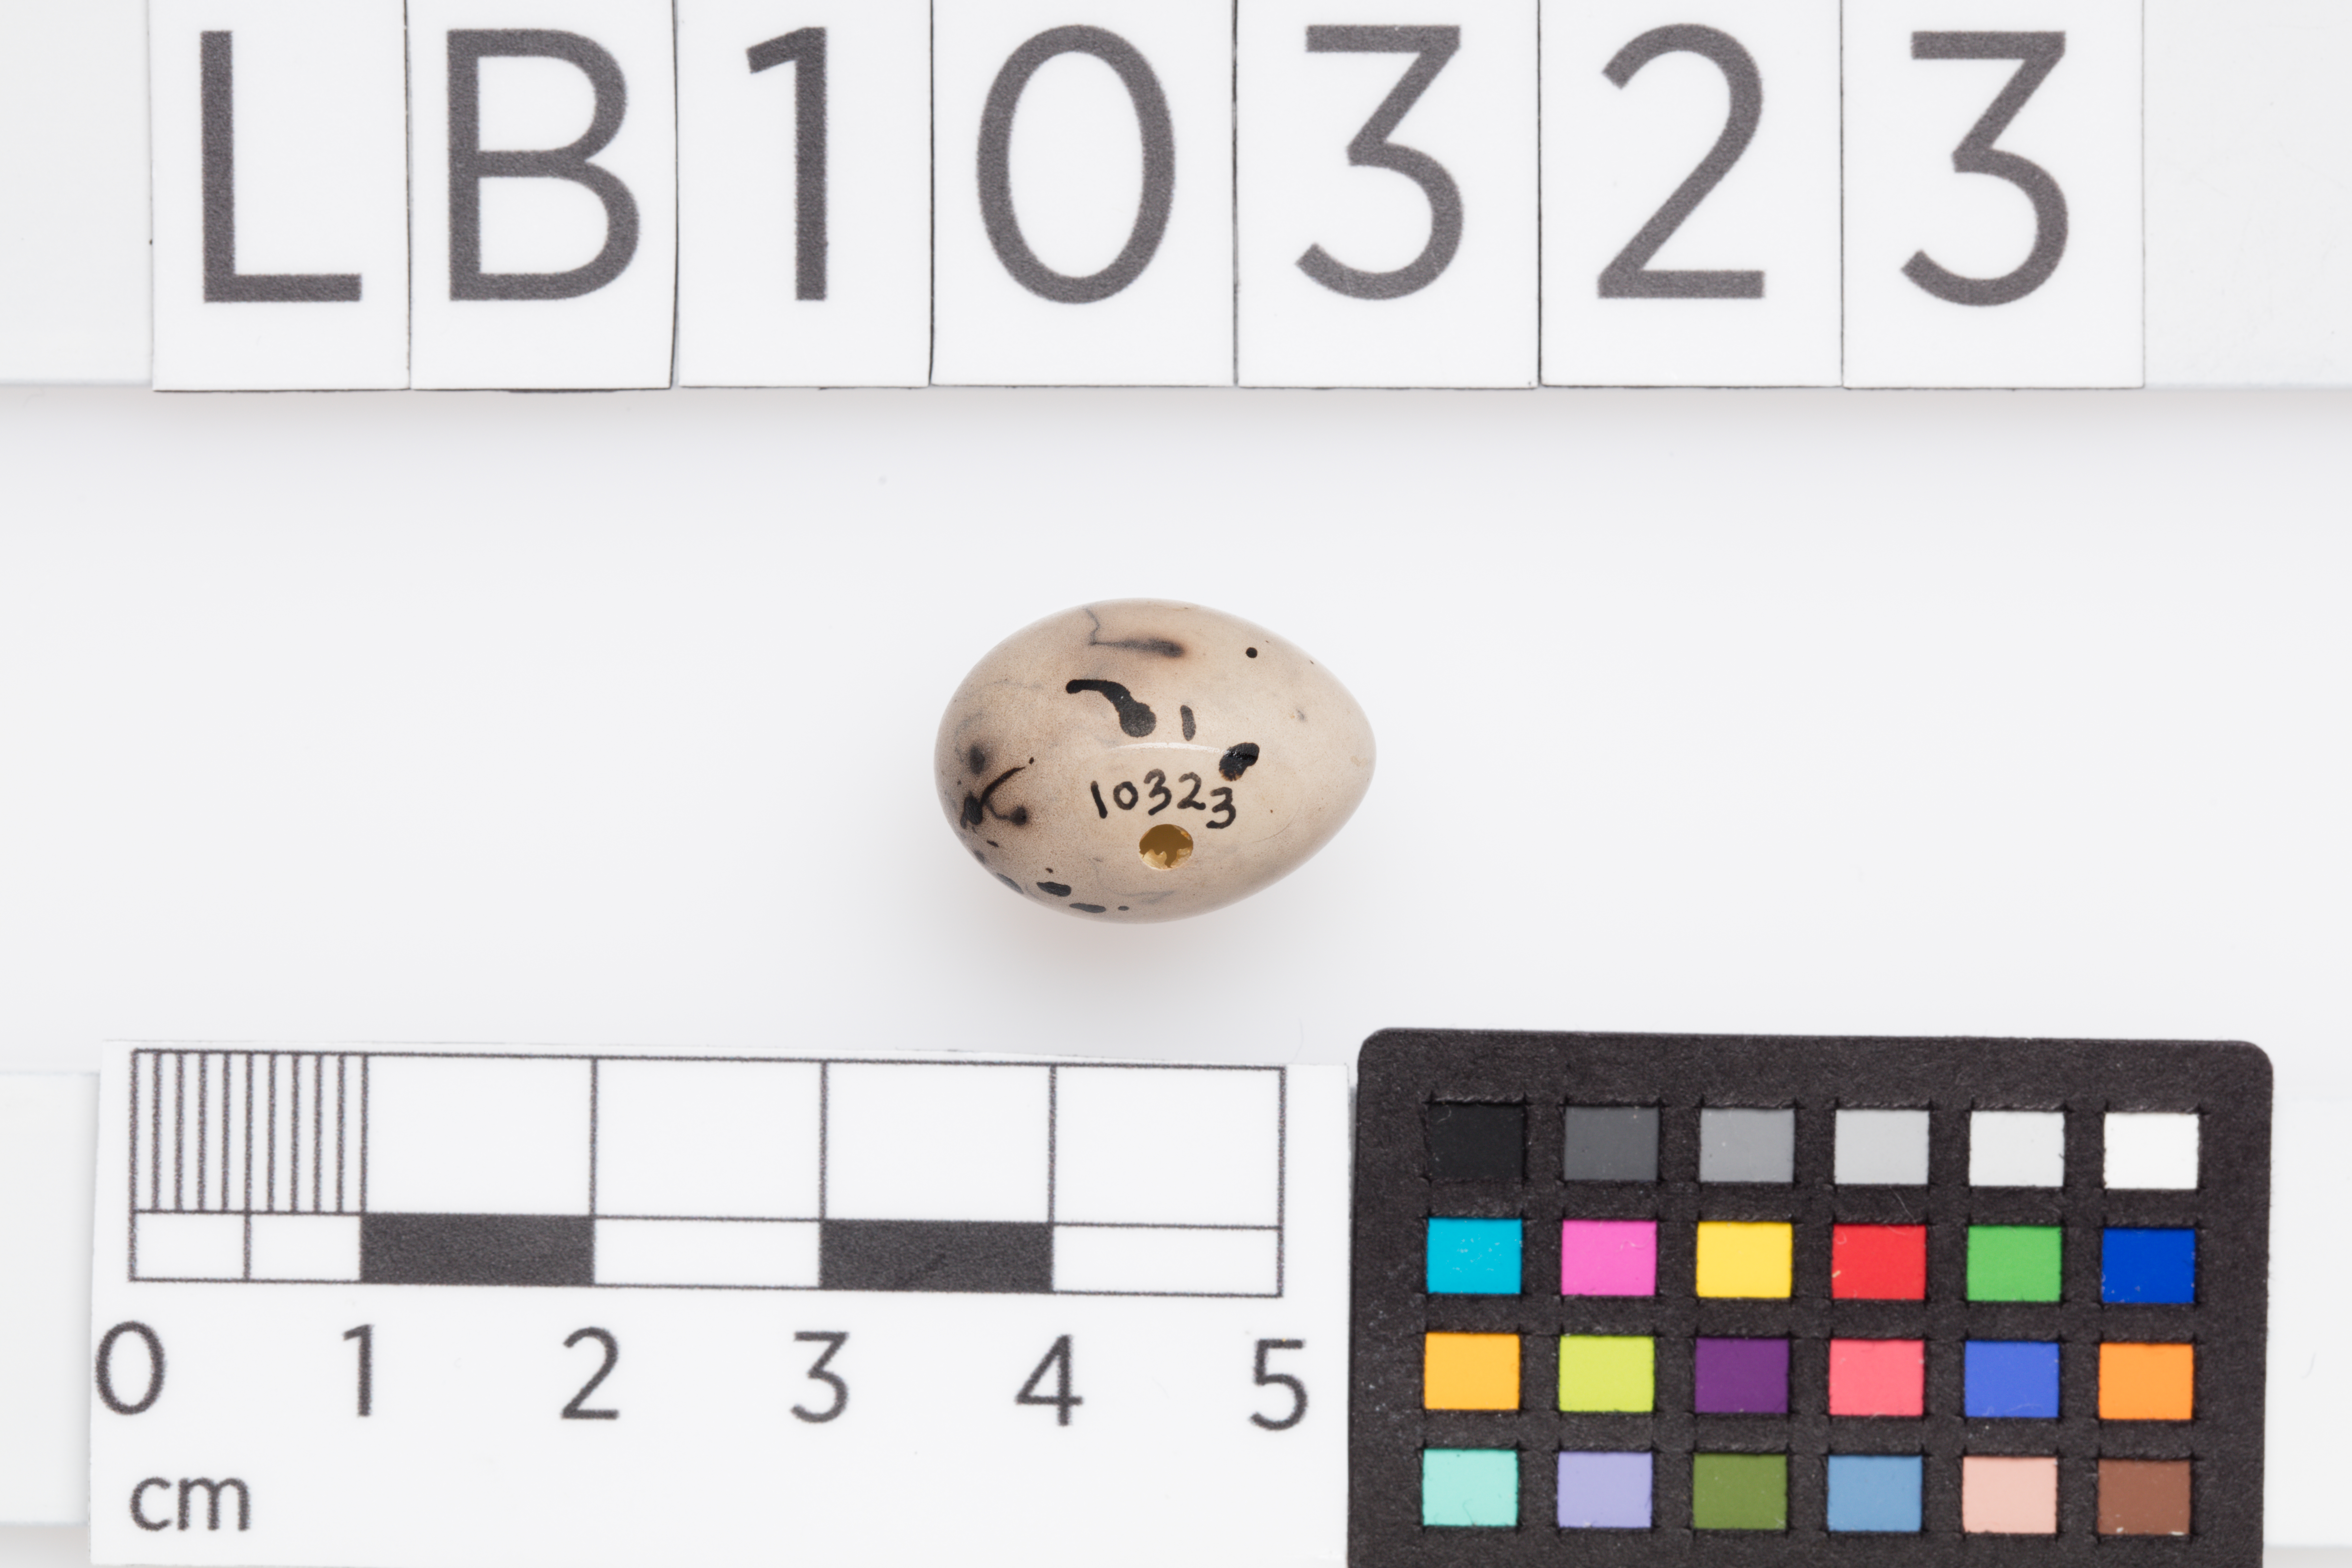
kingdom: Animalia
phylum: Chordata
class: Aves
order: Passeriformes
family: Emberizidae
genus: Emberiza
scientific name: Emberiza schoeniclus
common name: Reed bunting
